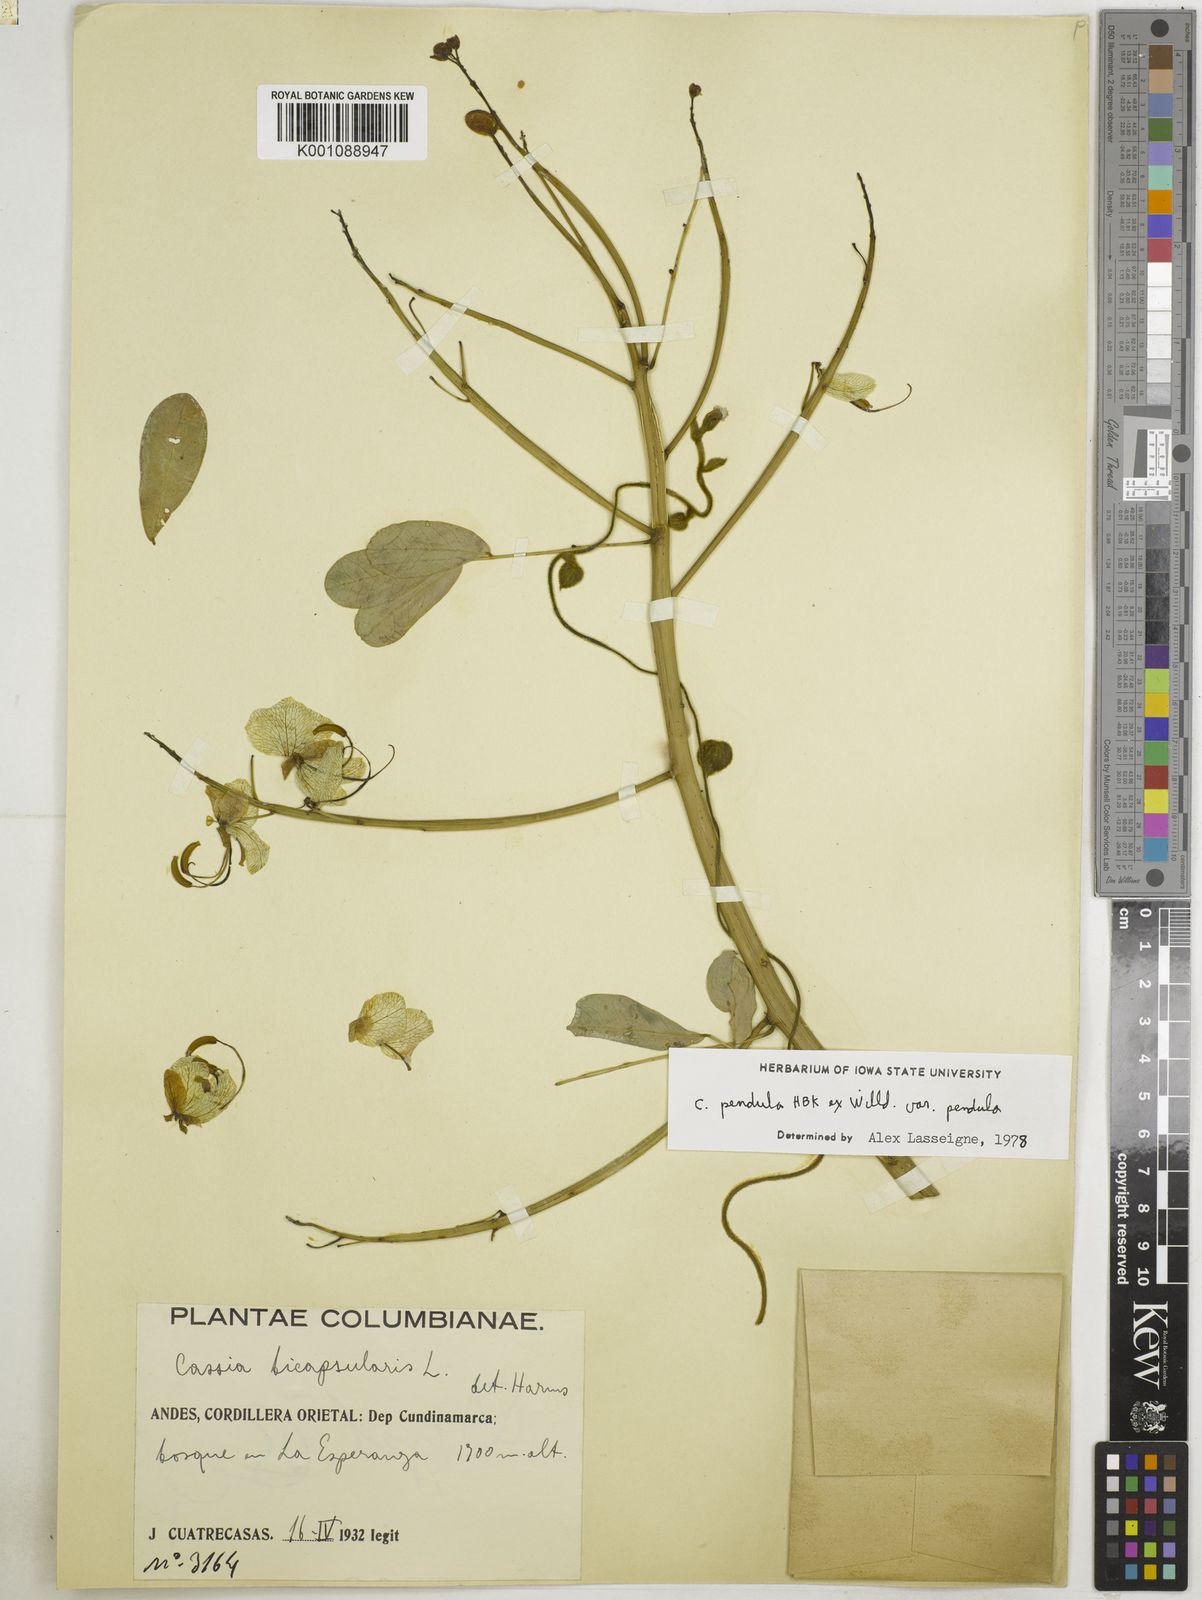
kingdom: Plantae
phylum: Tracheophyta
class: Magnoliopsida
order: Fabales
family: Fabaceae
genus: Senna
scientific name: Senna pendula
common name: Easter cassia
